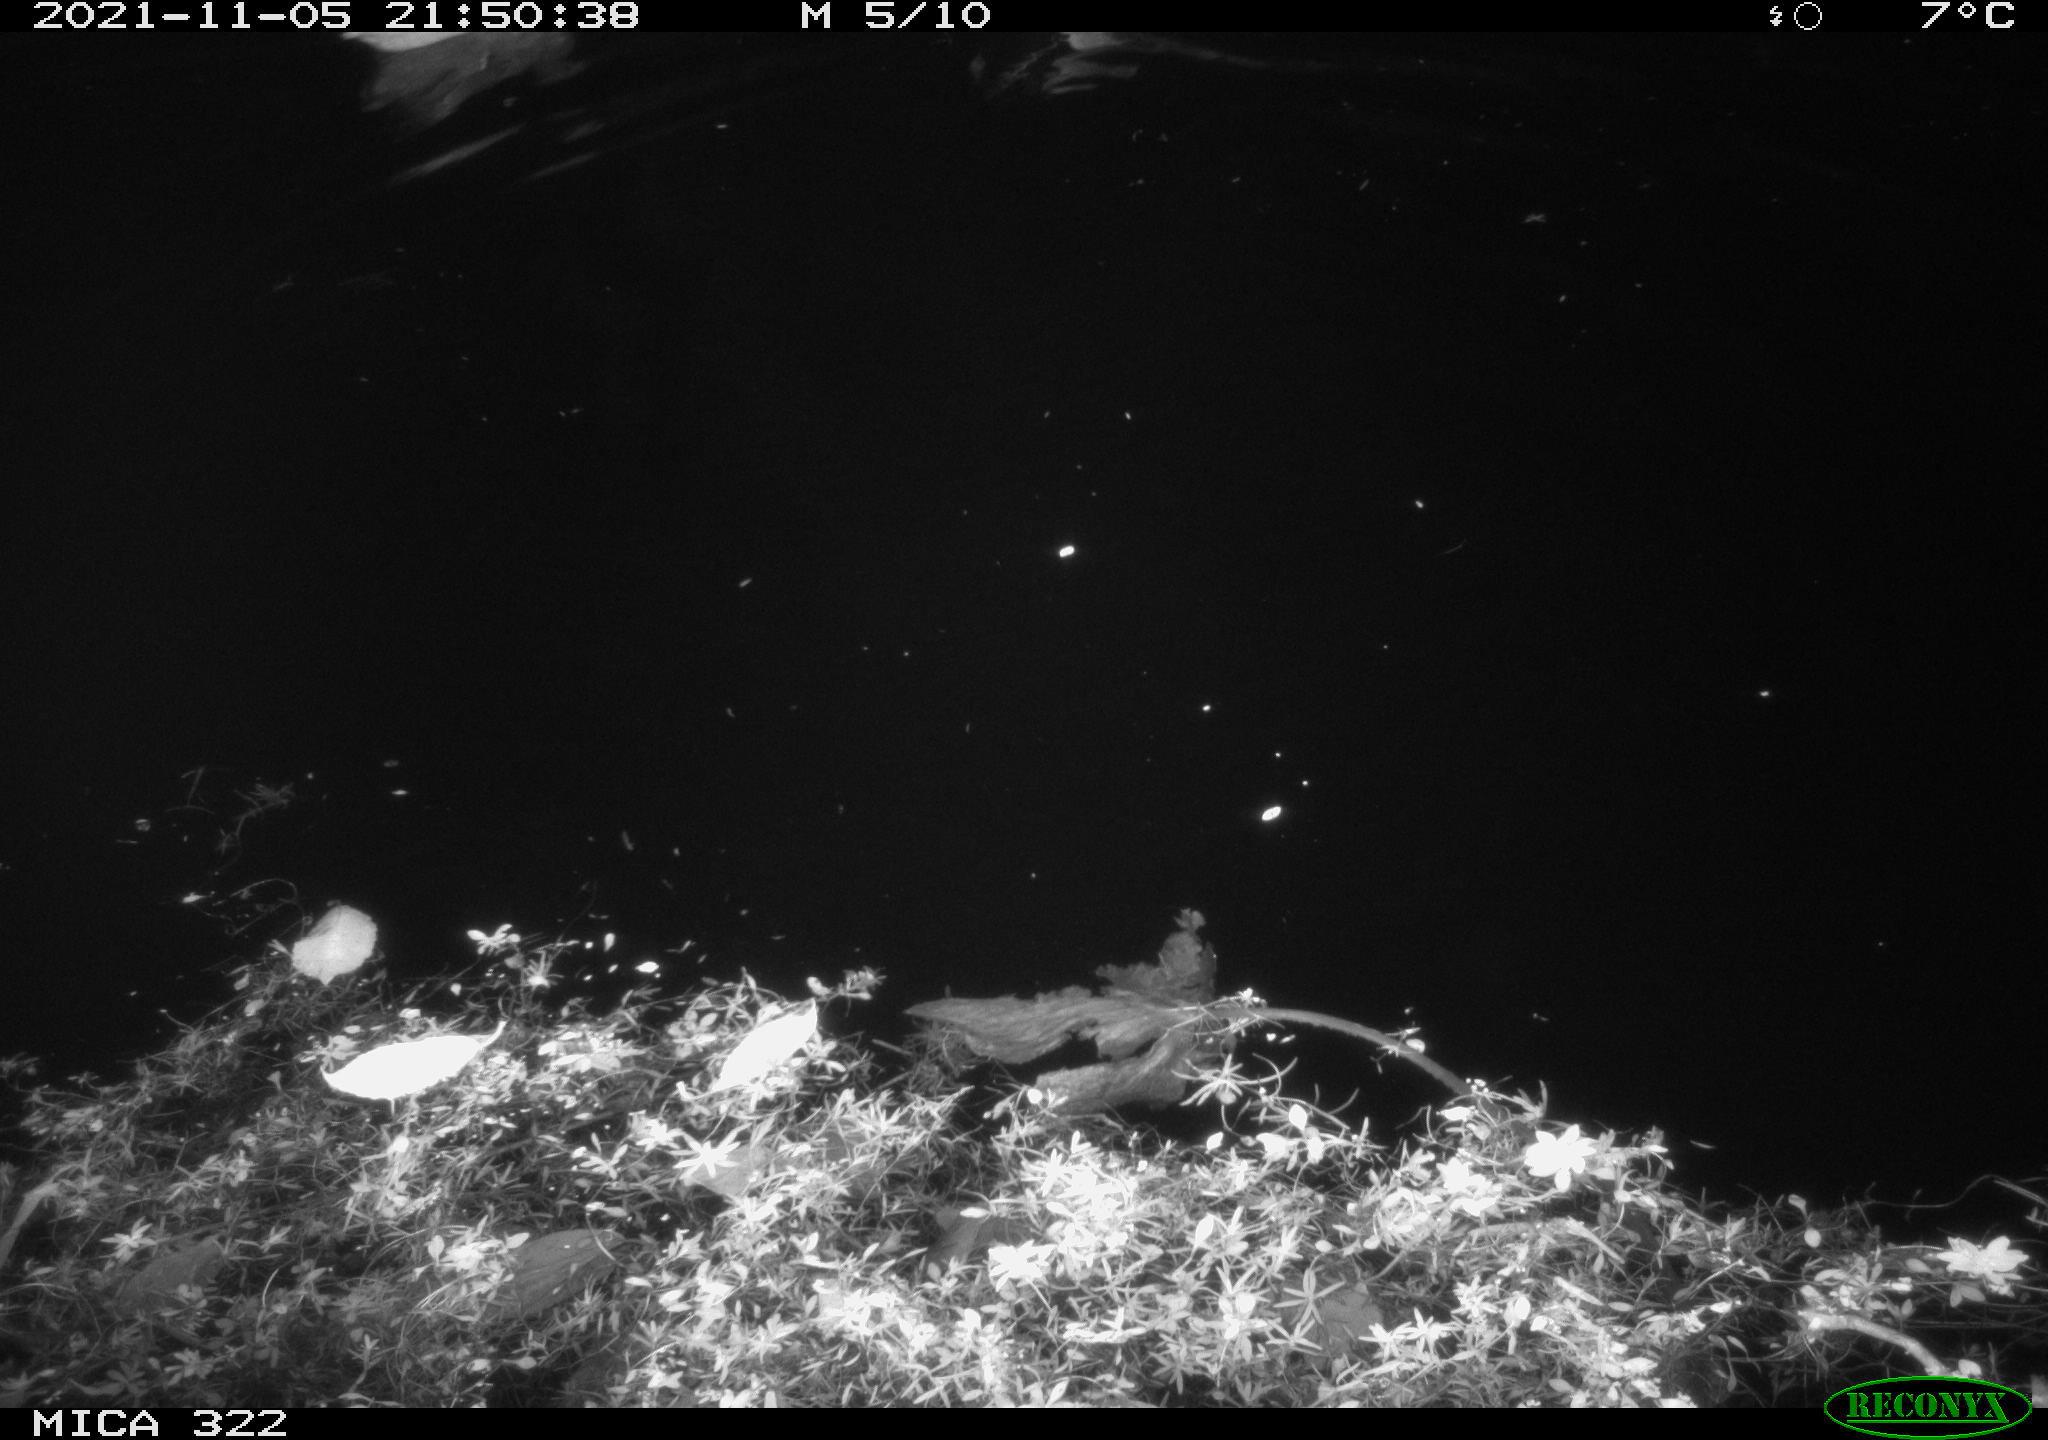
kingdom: Animalia
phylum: Chordata
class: Aves
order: Anseriformes
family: Anatidae
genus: Anas
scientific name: Anas platyrhynchos
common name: Mallard
